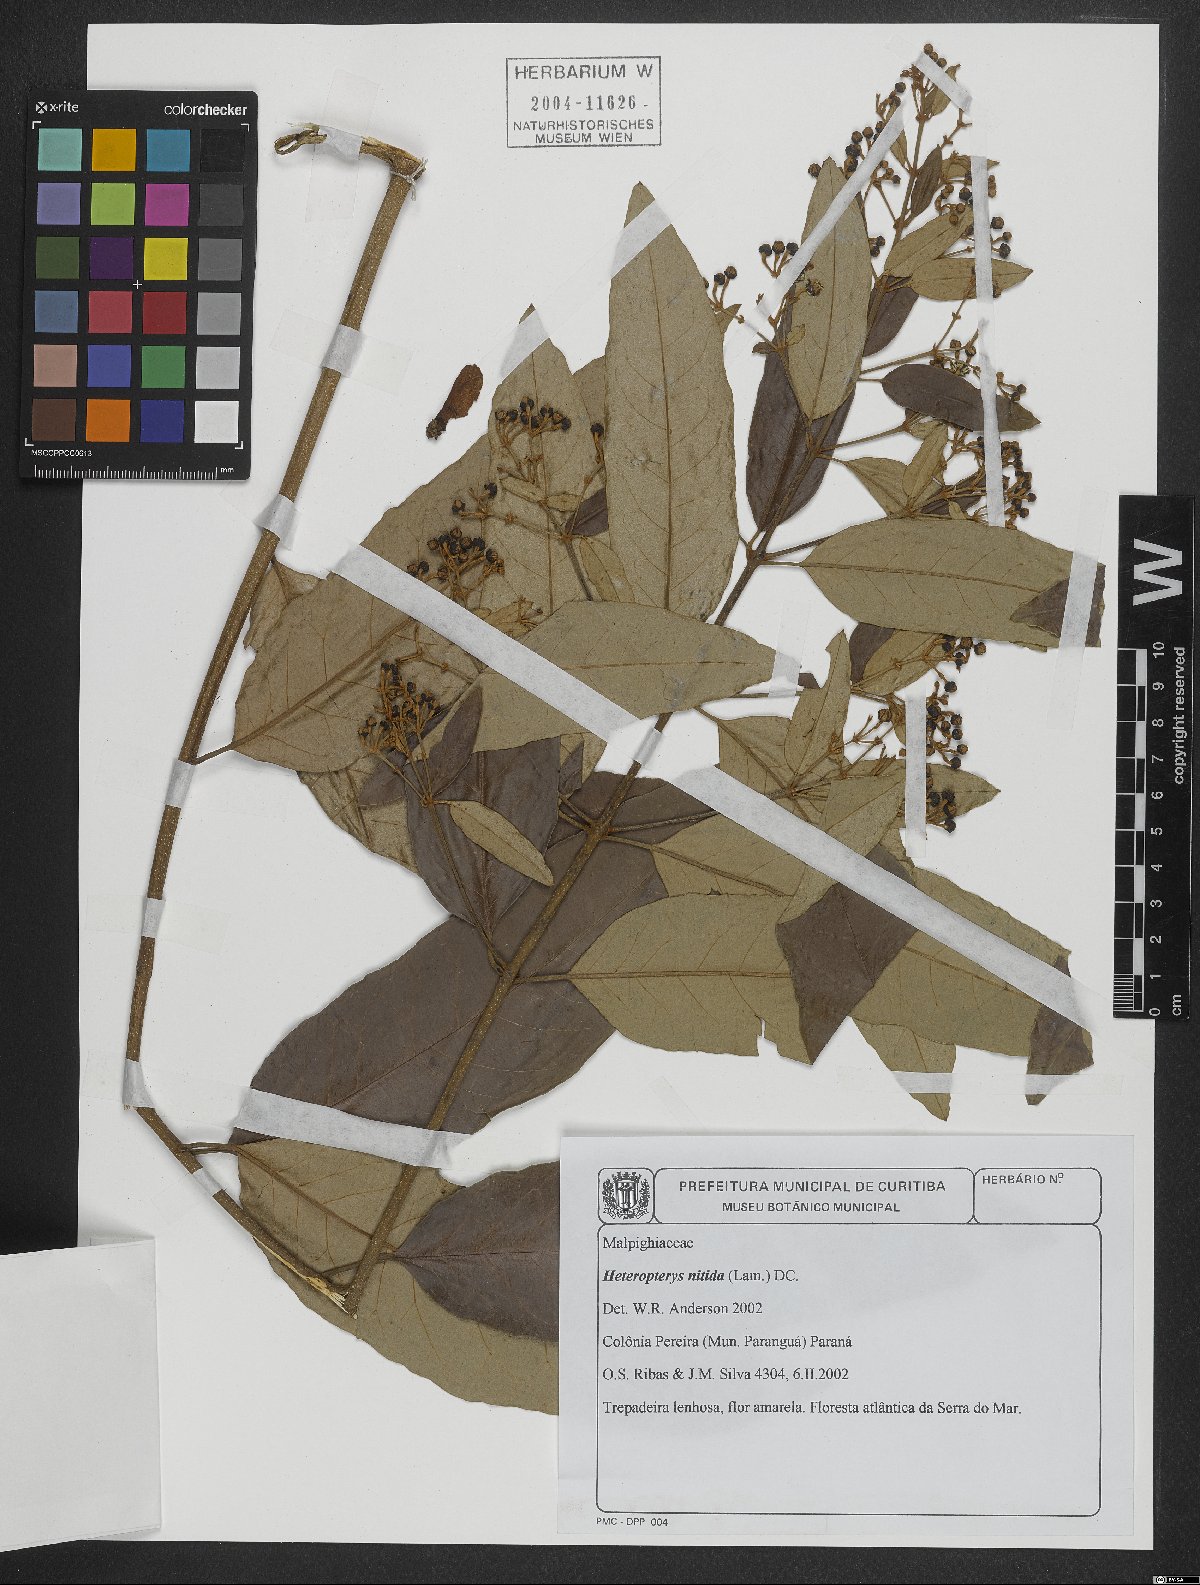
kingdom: Plantae
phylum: Tracheophyta
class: Magnoliopsida
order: Malpighiales
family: Malpighiaceae
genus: Heteropterys
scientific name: Heteropterys nitida
